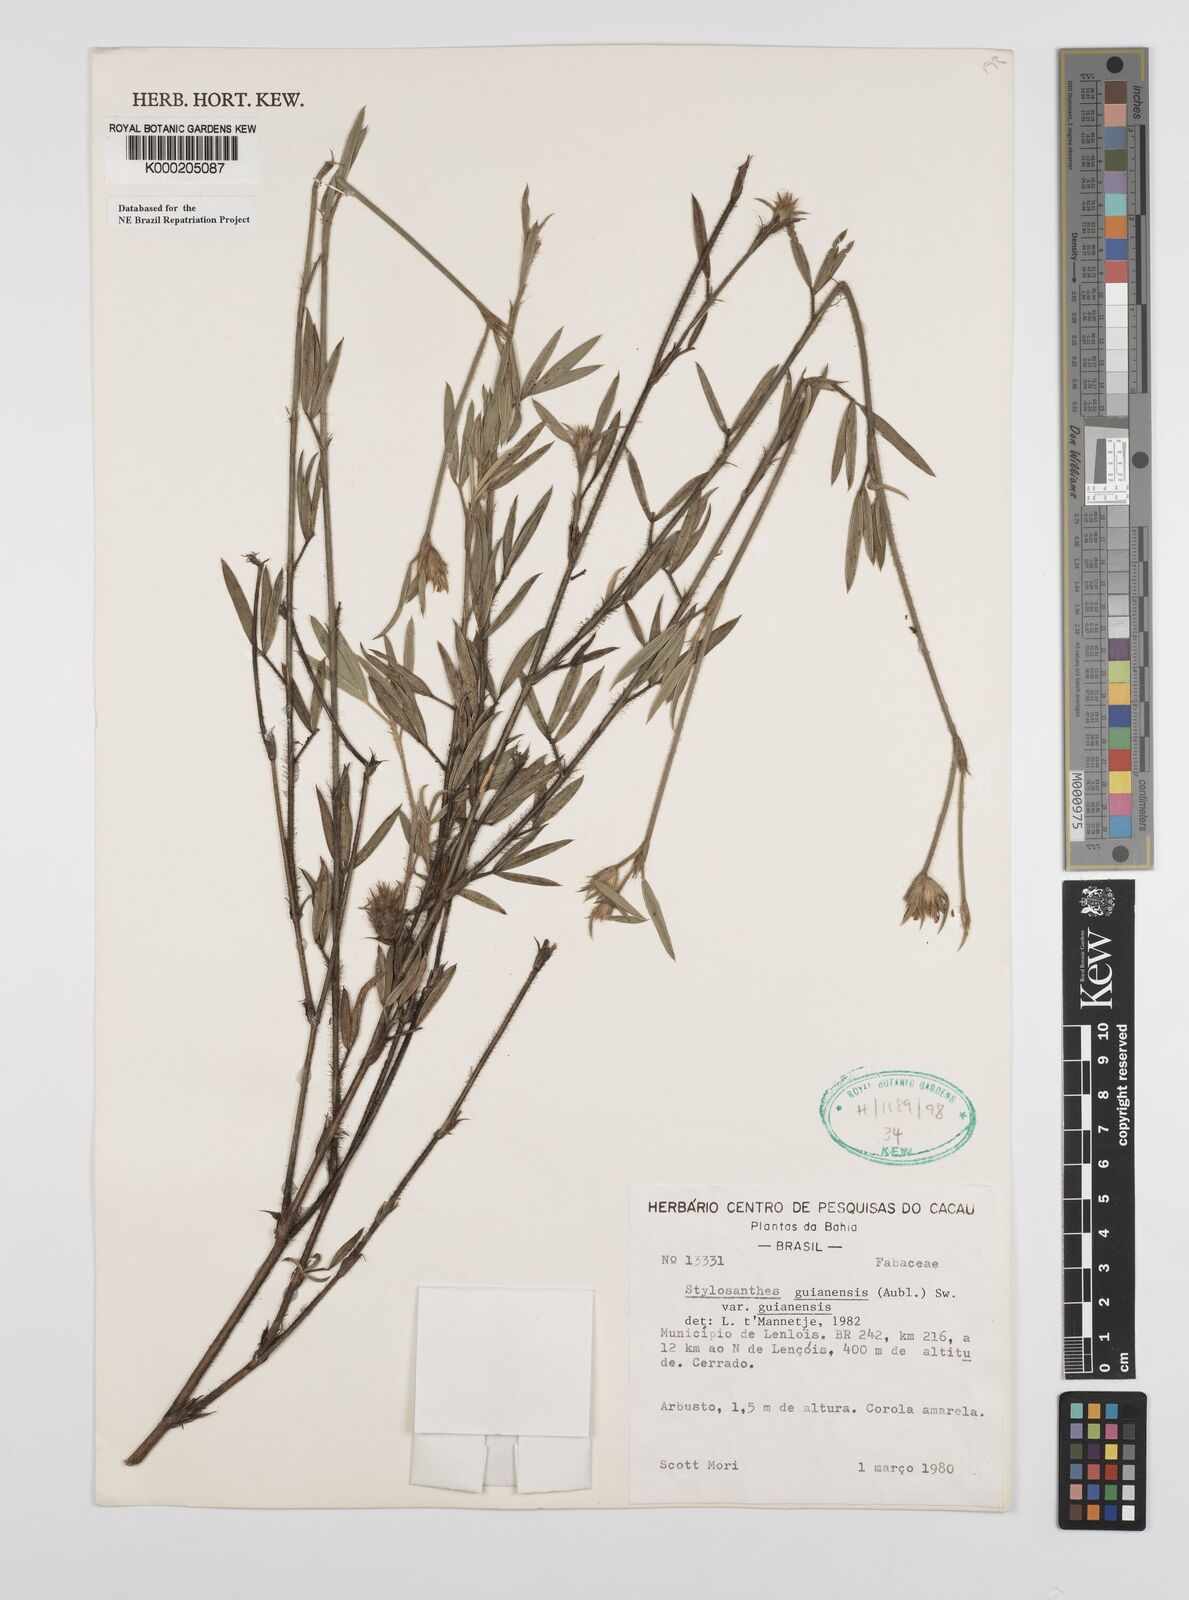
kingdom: Plantae
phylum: Tracheophyta
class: Magnoliopsida
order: Fabales
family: Fabaceae
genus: Stylosanthes
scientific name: Stylosanthes guianensis
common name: Pencil flower
